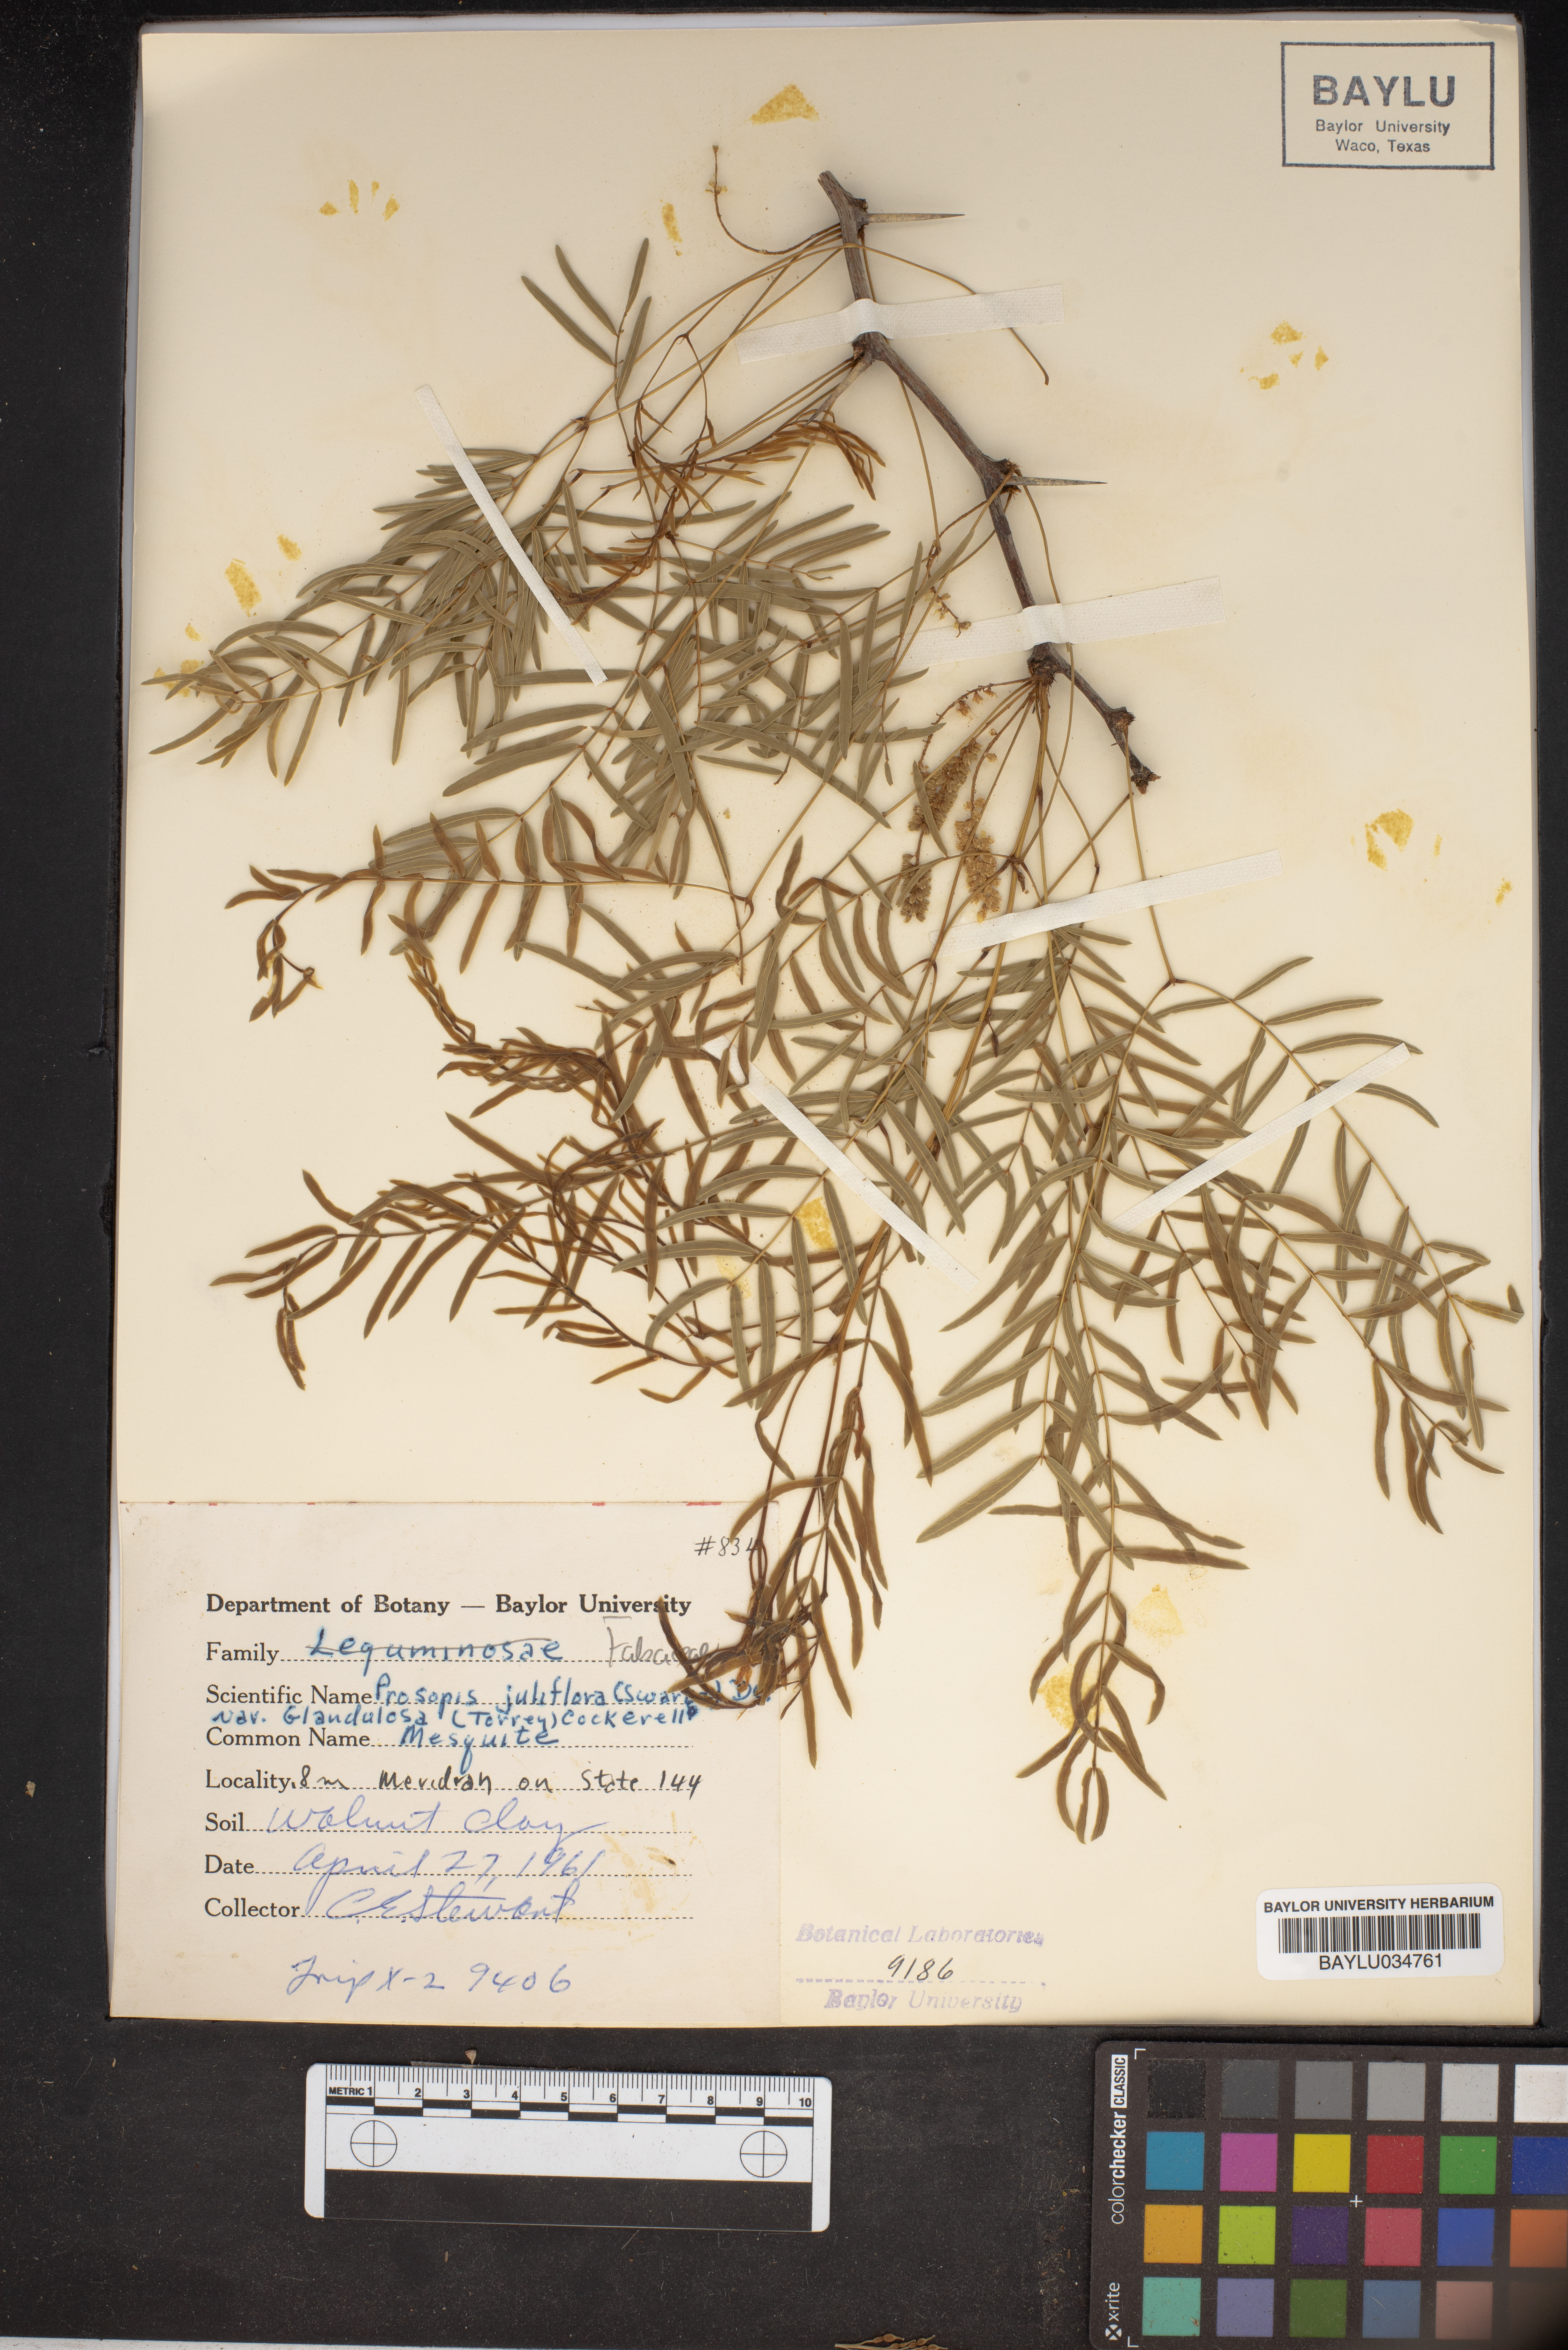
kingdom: Plantae
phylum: Tracheophyta
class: Magnoliopsida
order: Fabales
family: Fabaceae
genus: Prosopis
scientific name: Prosopis juliflora
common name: Mesquite
